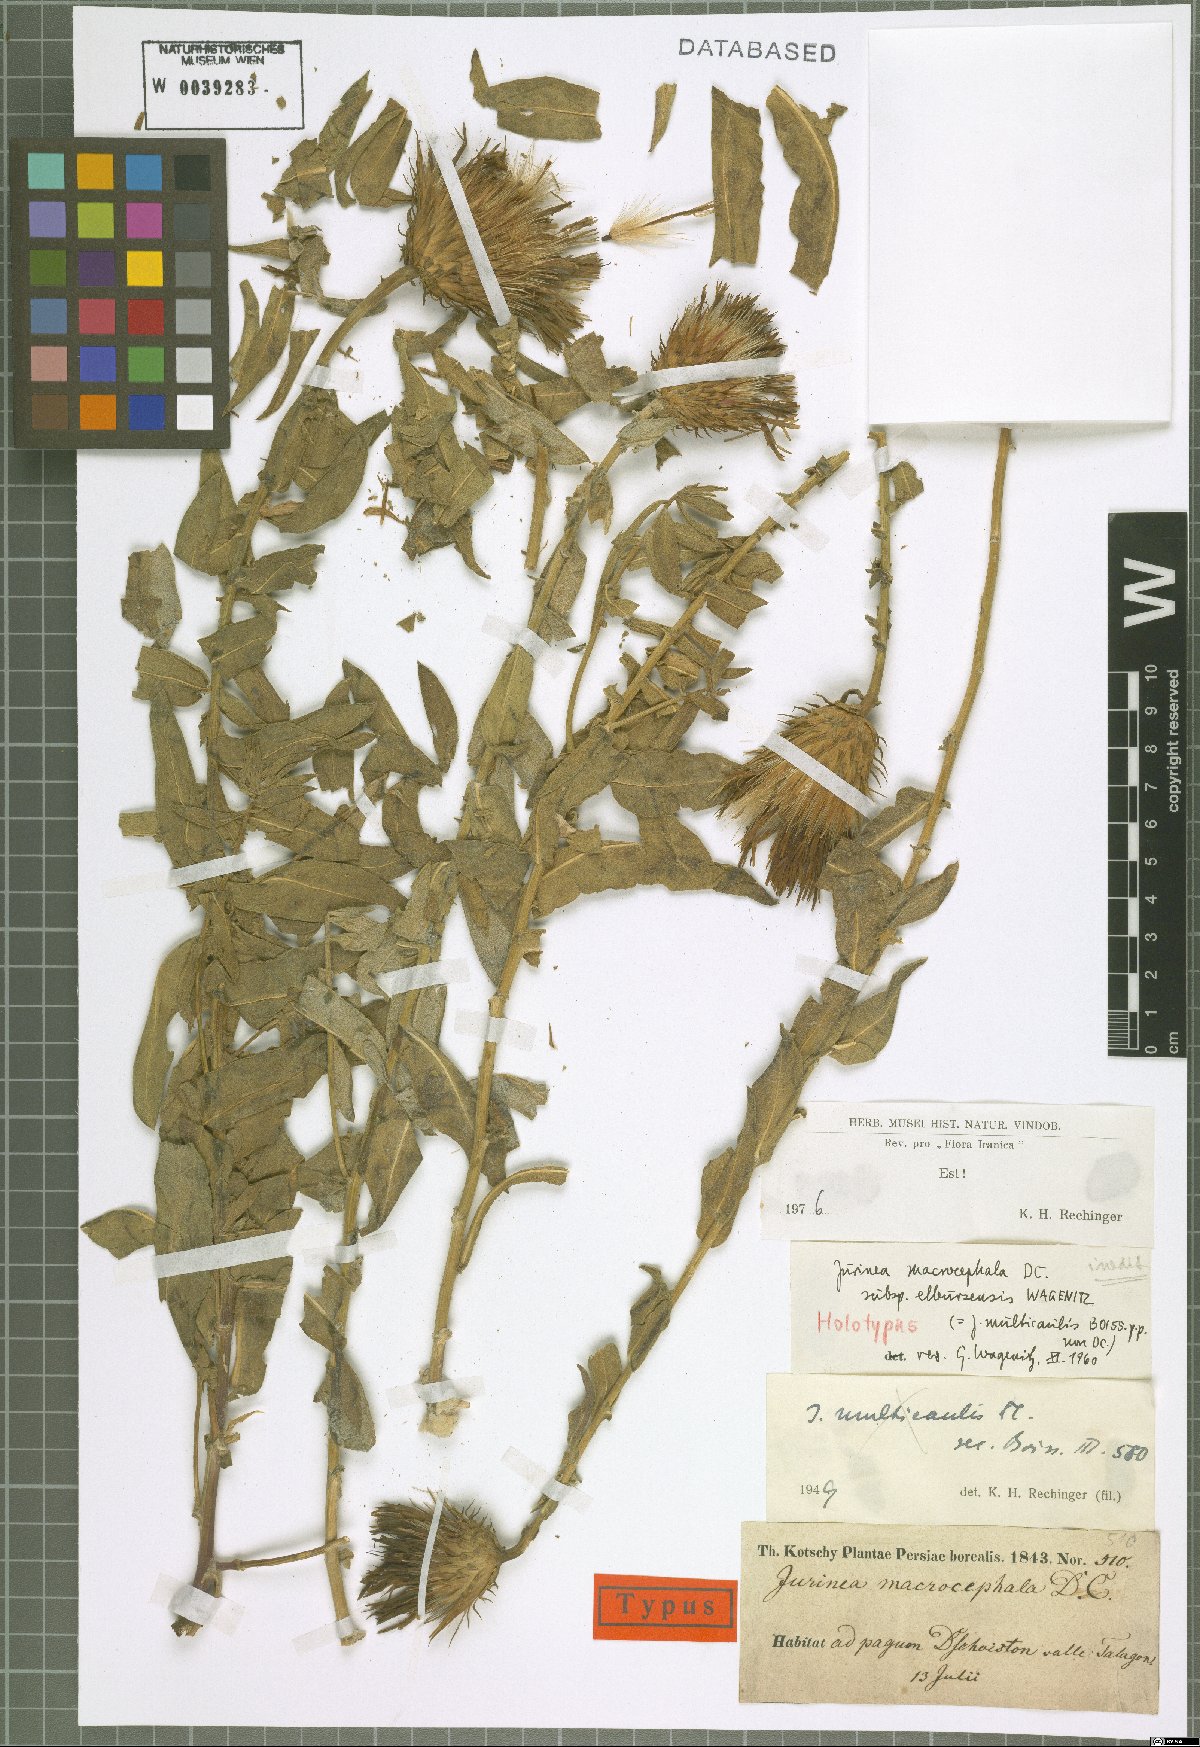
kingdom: Plantae
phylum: Tracheophyta
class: Magnoliopsida
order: Asterales
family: Asteraceae
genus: Jurinea
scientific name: Jurinea elbursensis
